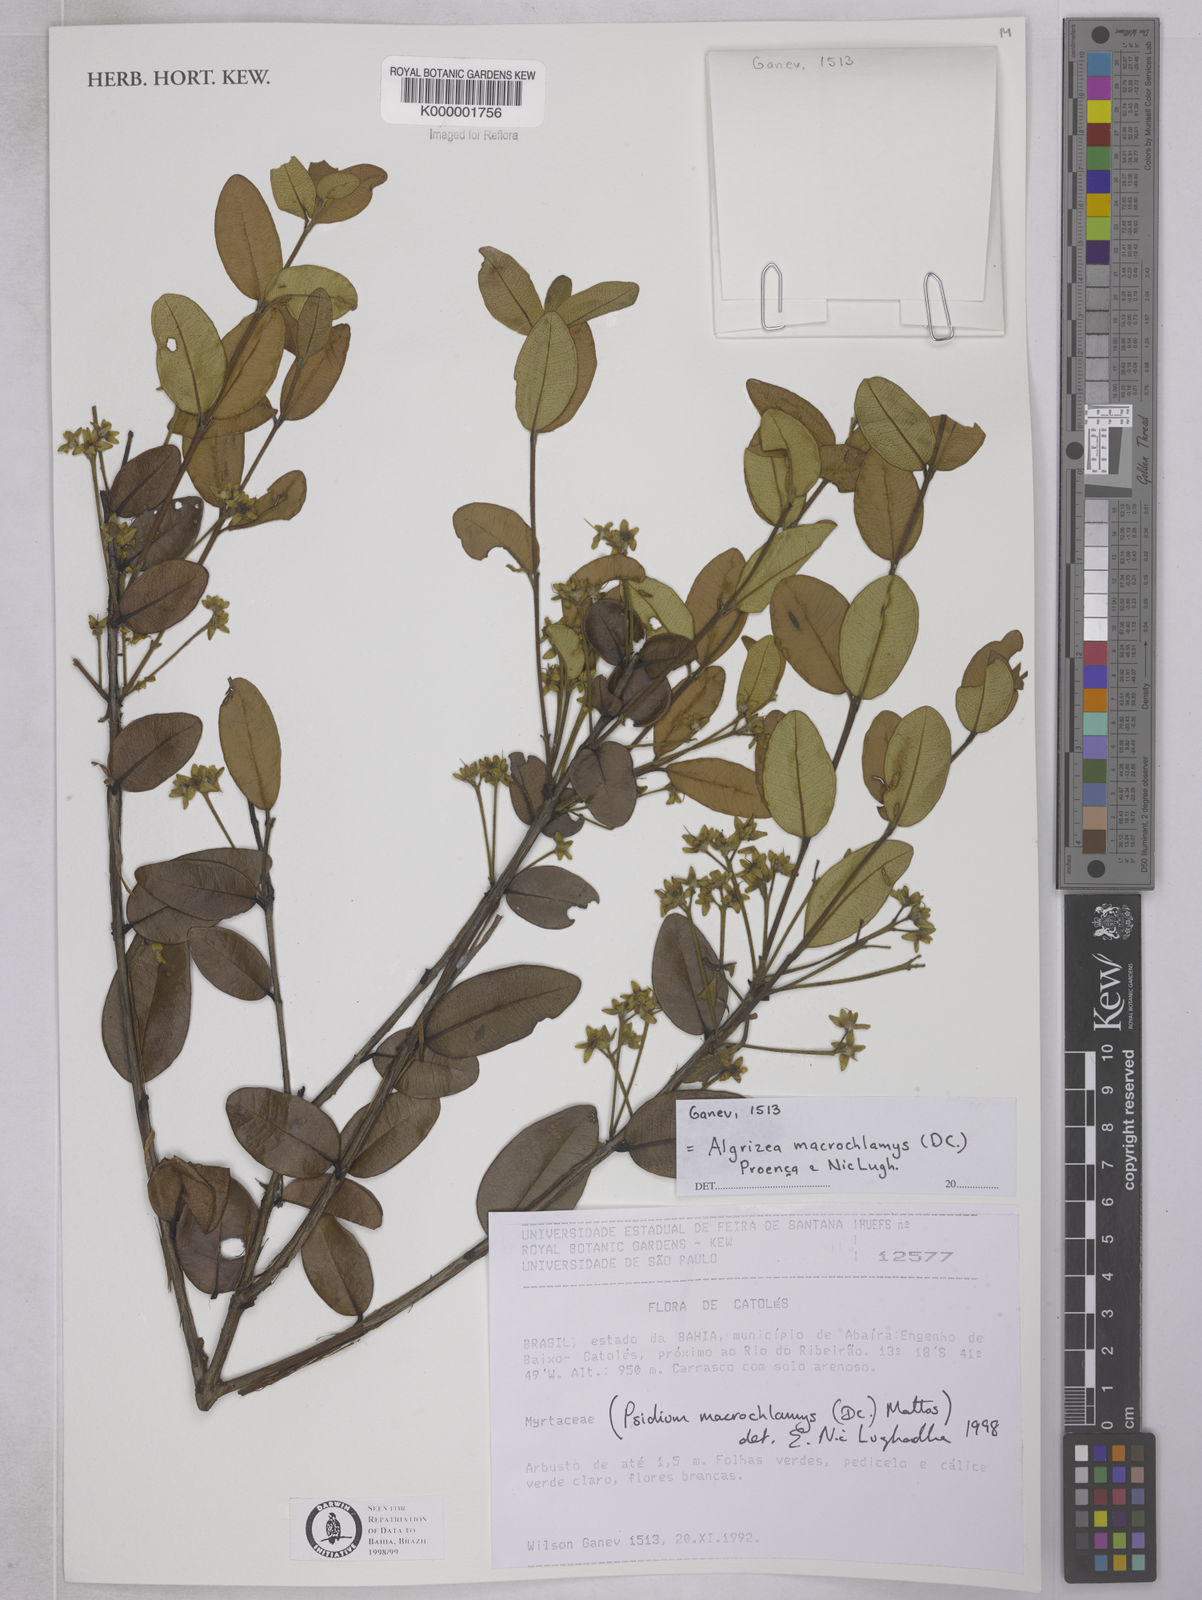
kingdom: Plantae
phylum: Tracheophyta
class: Magnoliopsida
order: Myrtales
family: Myrtaceae
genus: Algrizea
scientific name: Algrizea macrochlamys
